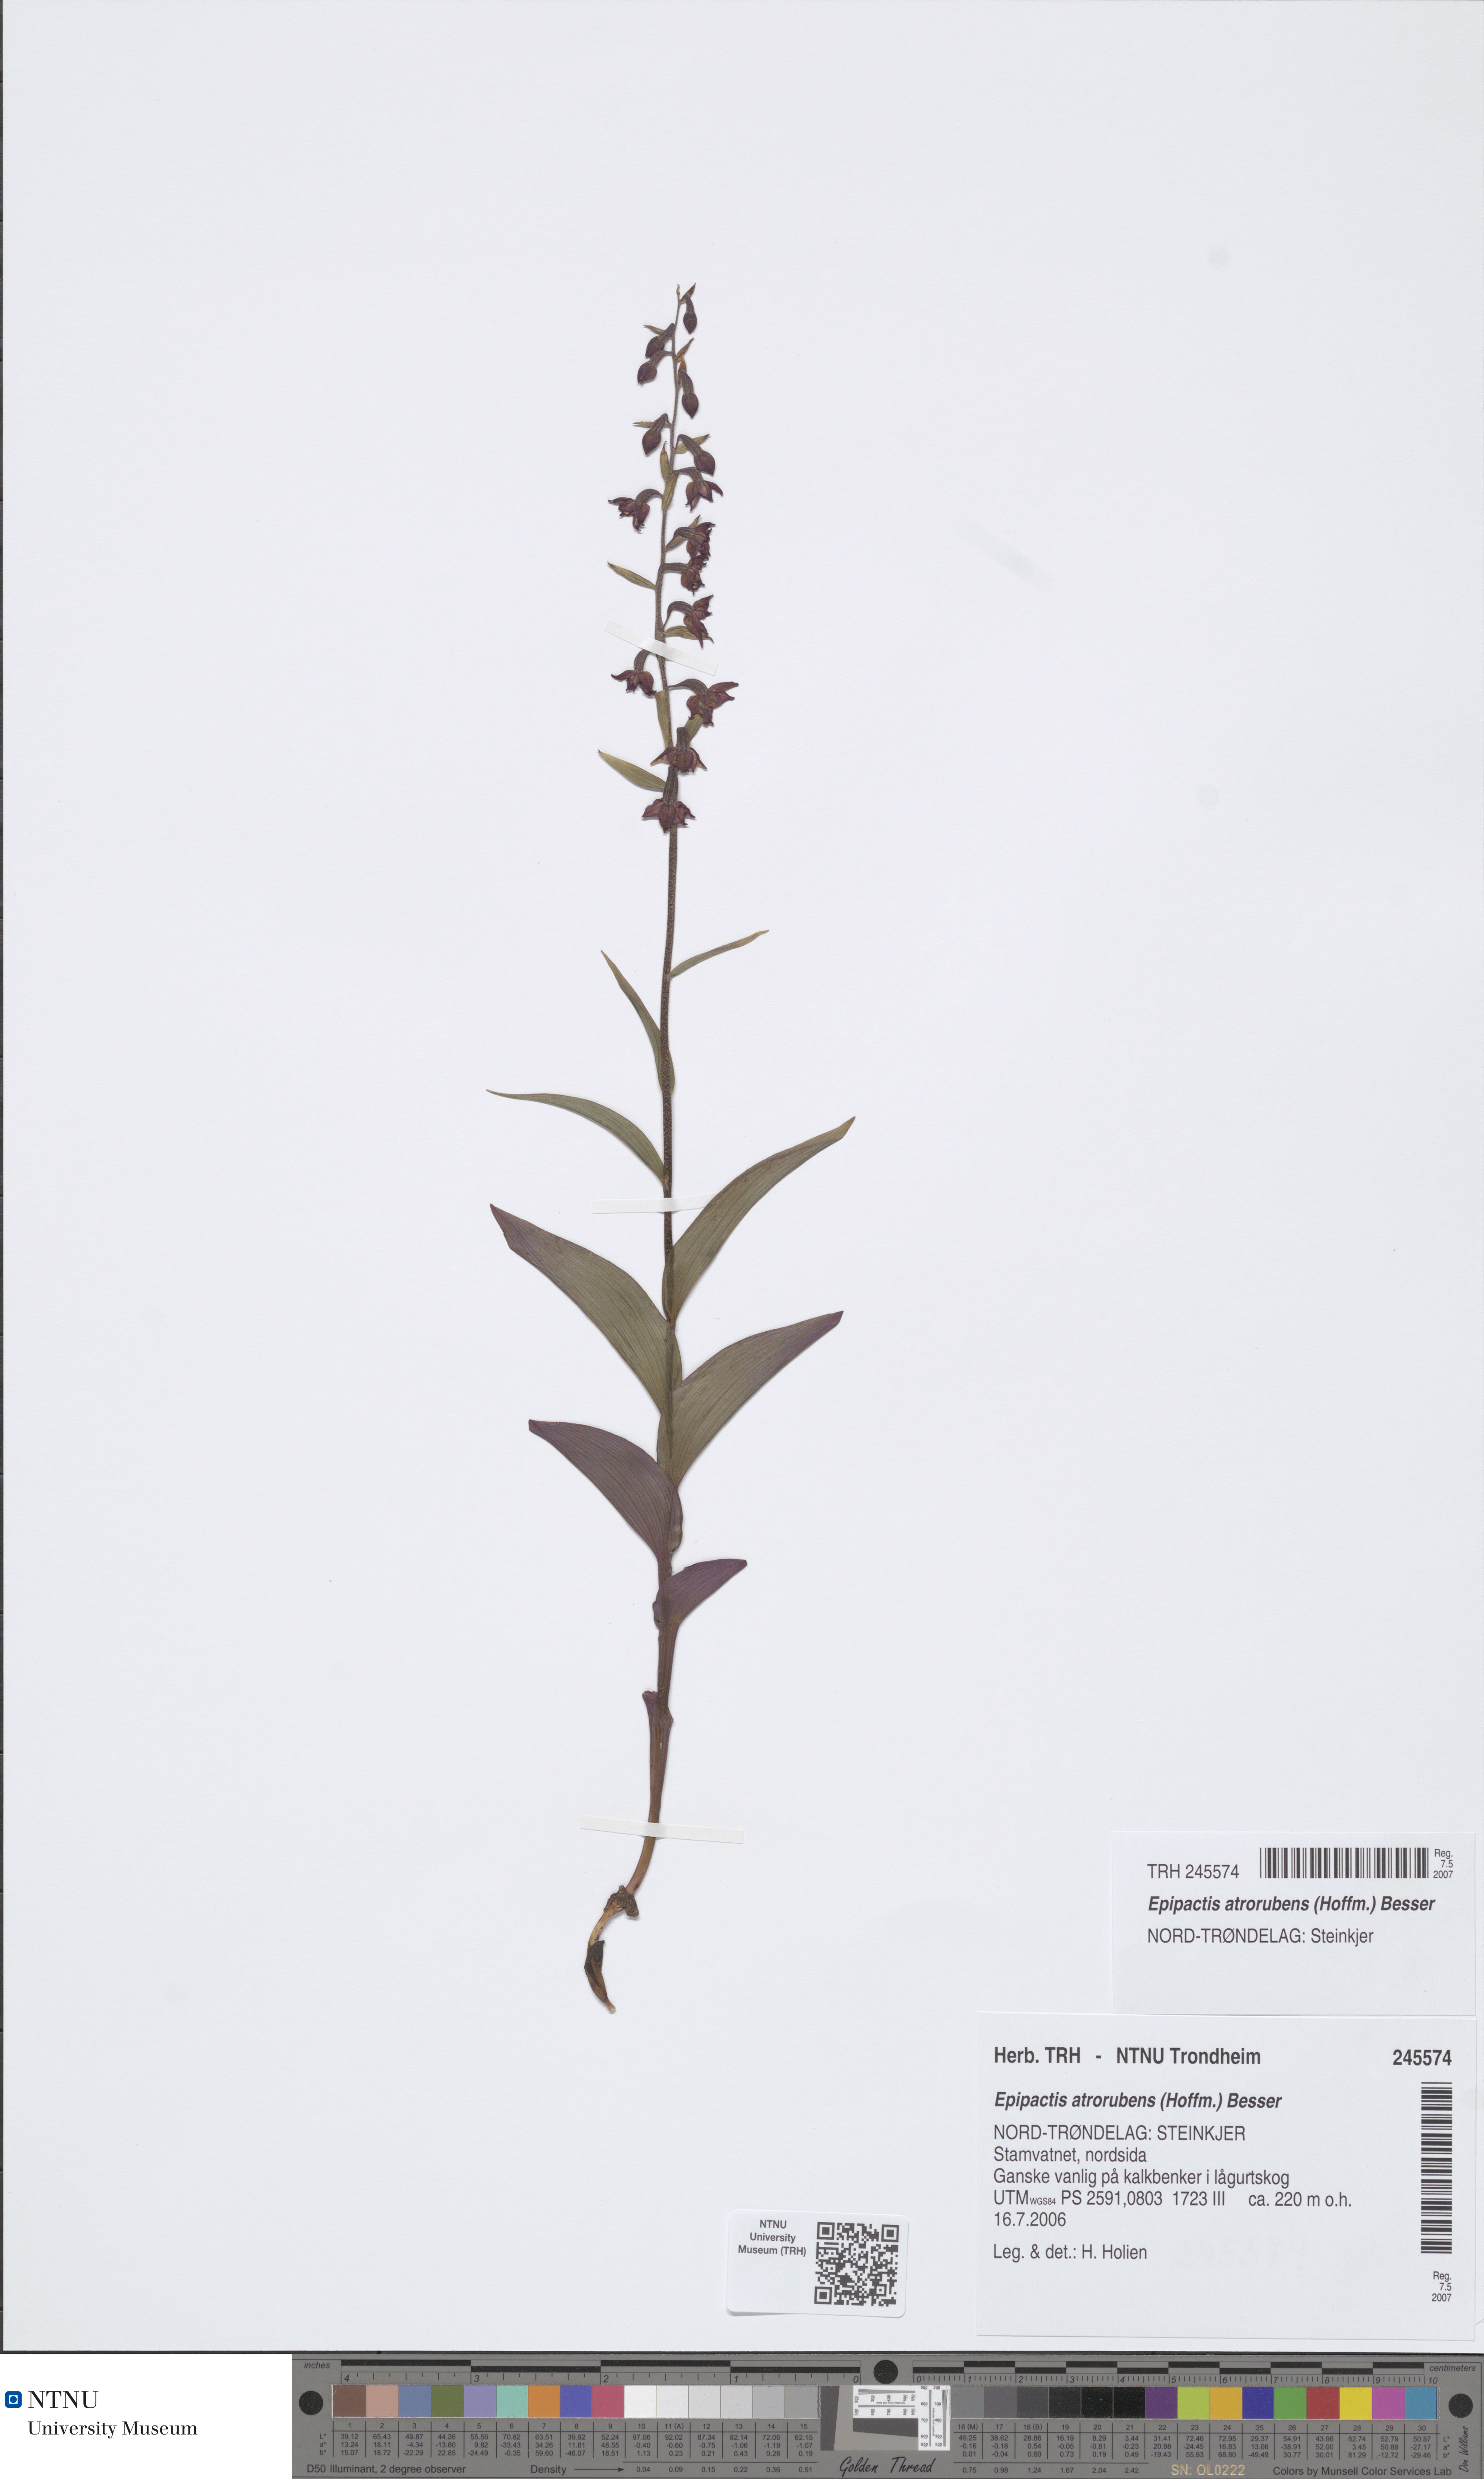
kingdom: Plantae
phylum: Tracheophyta
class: Liliopsida
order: Asparagales
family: Orchidaceae
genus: Epipactis
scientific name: Epipactis atrorubens
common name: Dark-red helleborine
